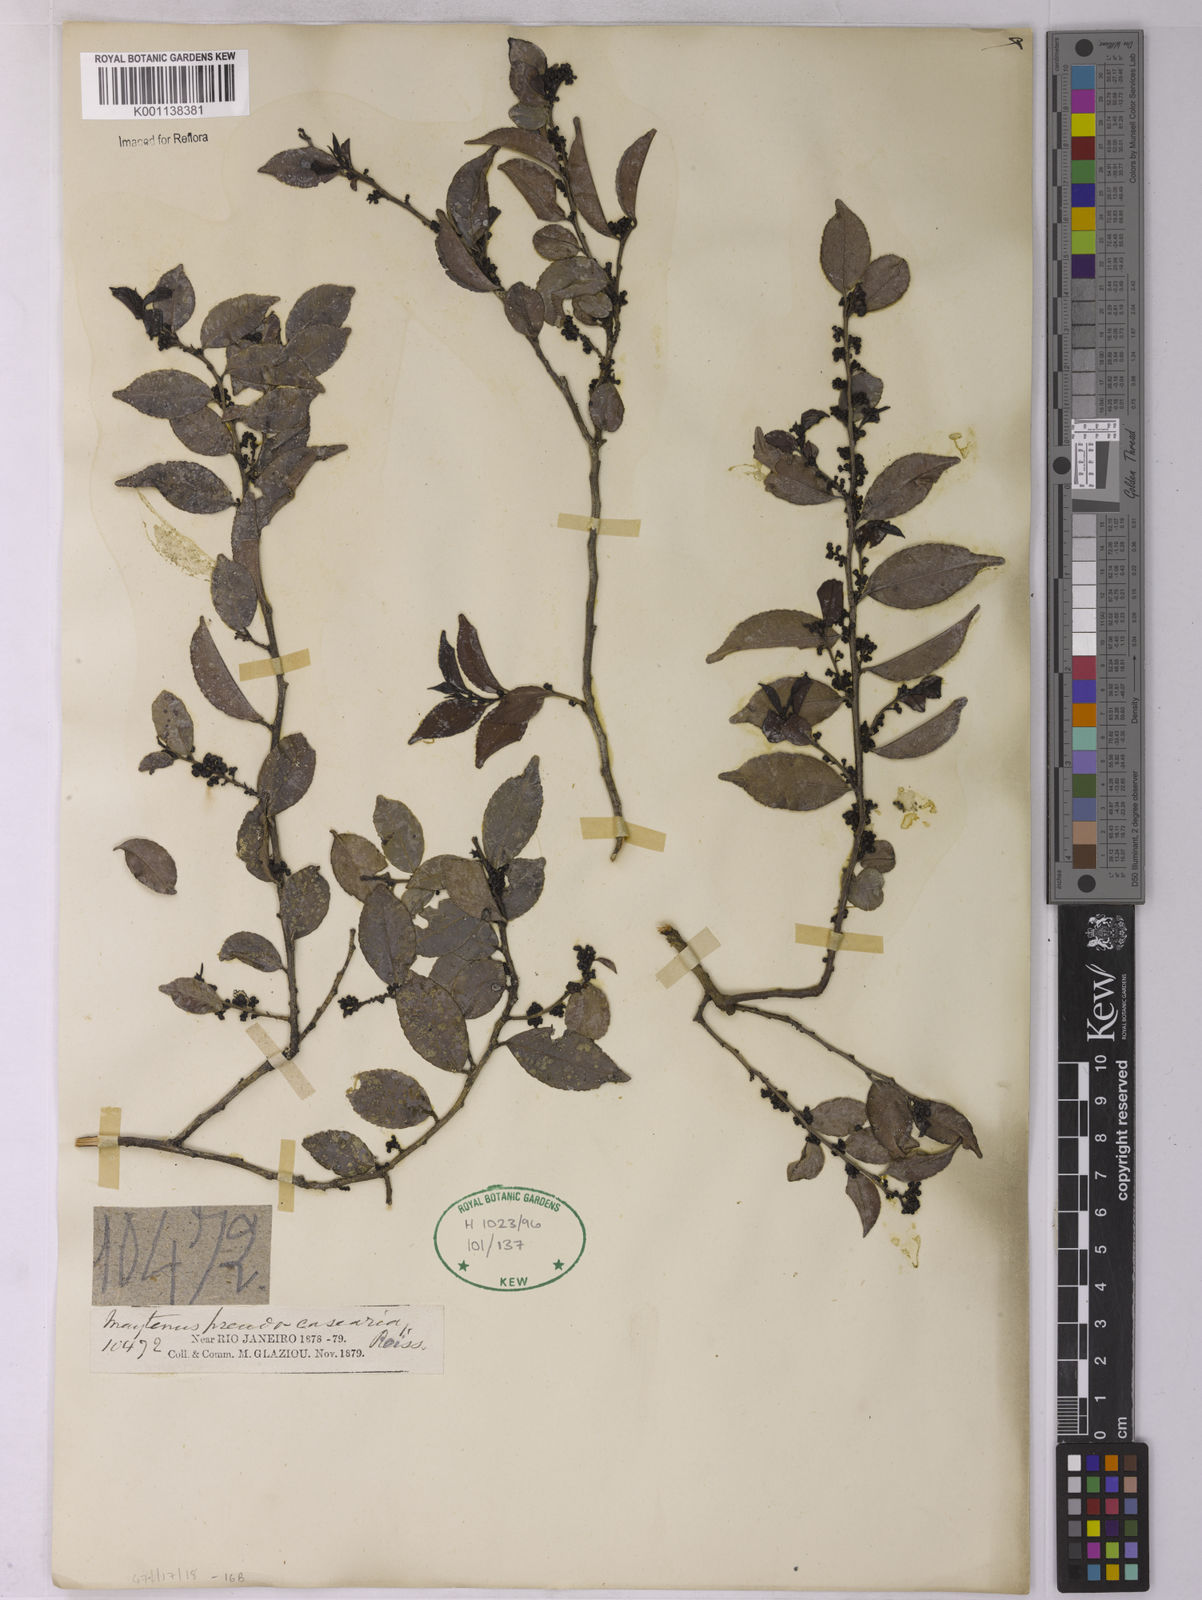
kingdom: Plantae
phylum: Tracheophyta
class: Magnoliopsida
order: Celastrales
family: Celastraceae
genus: Monteverdia
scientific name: Monteverdia evonymoides
